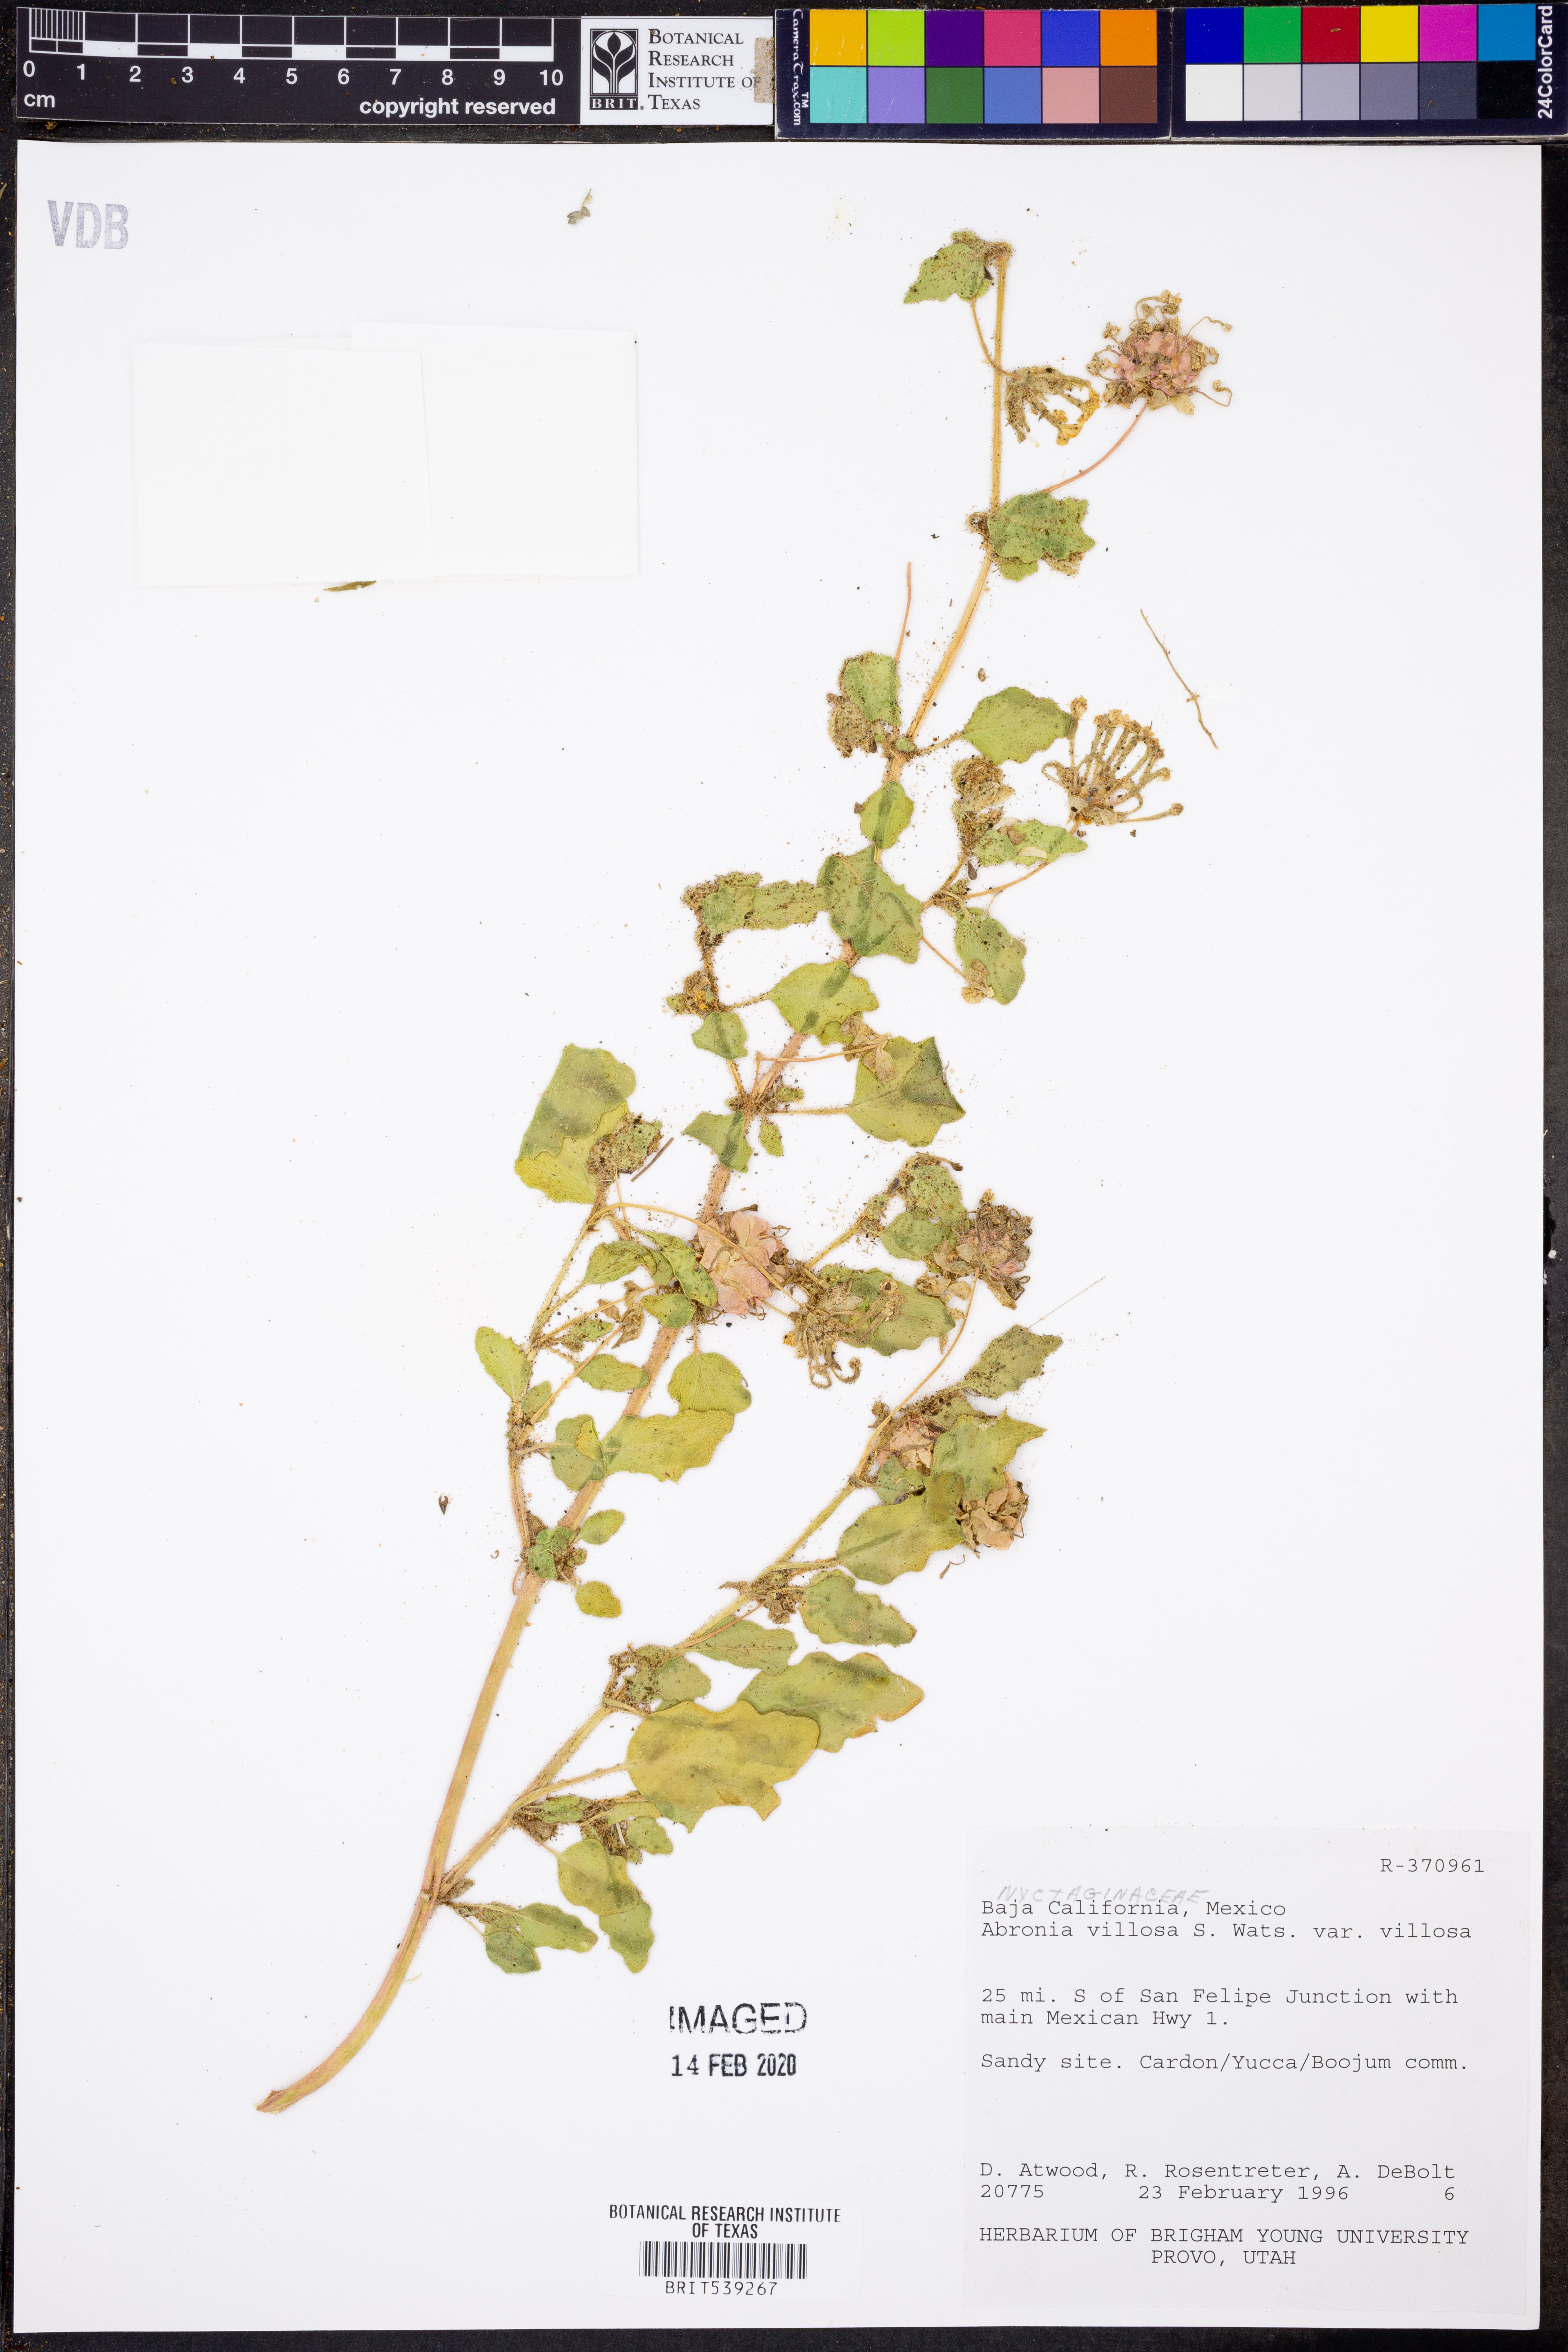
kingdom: Plantae
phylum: Tracheophyta
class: Magnoliopsida
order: Caryophyllales
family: Nyctaginaceae
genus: Abronia
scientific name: Abronia villosa
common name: Desert sand-verbena
